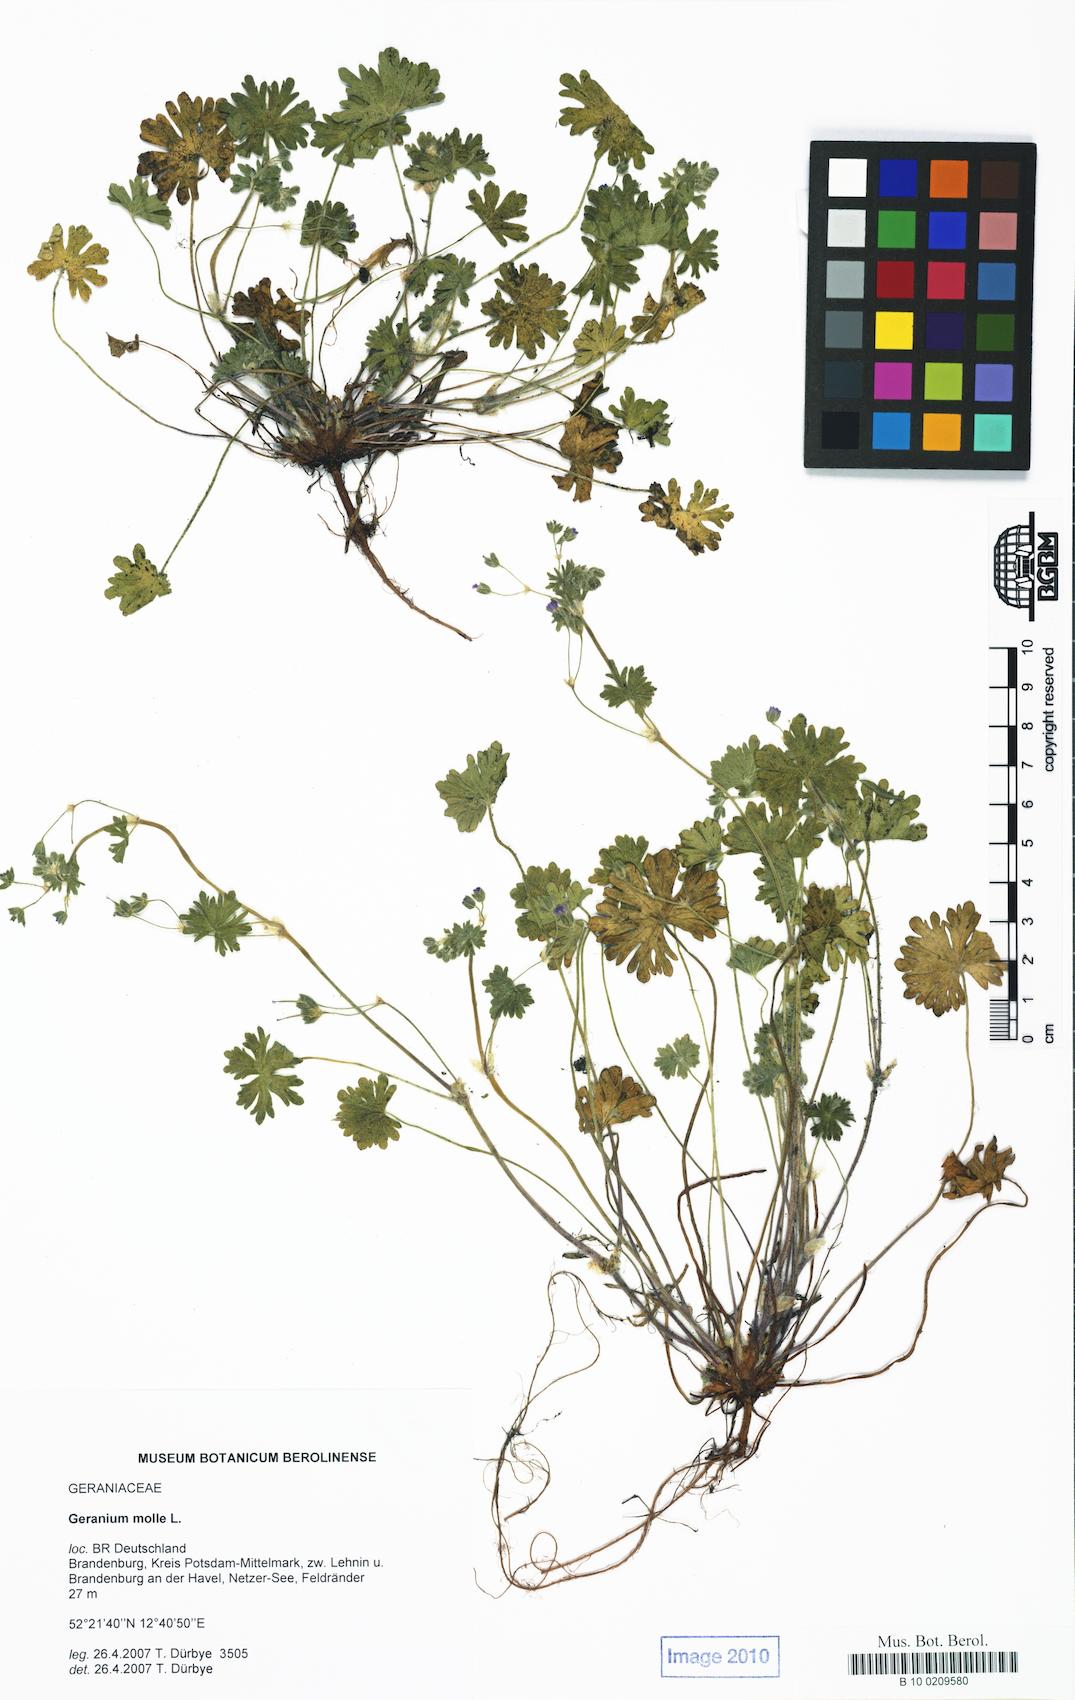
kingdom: Plantae
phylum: Tracheophyta
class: Magnoliopsida
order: Geraniales
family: Geraniaceae
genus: Geranium
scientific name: Geranium molle
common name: Dove's-foot crane's-bill
